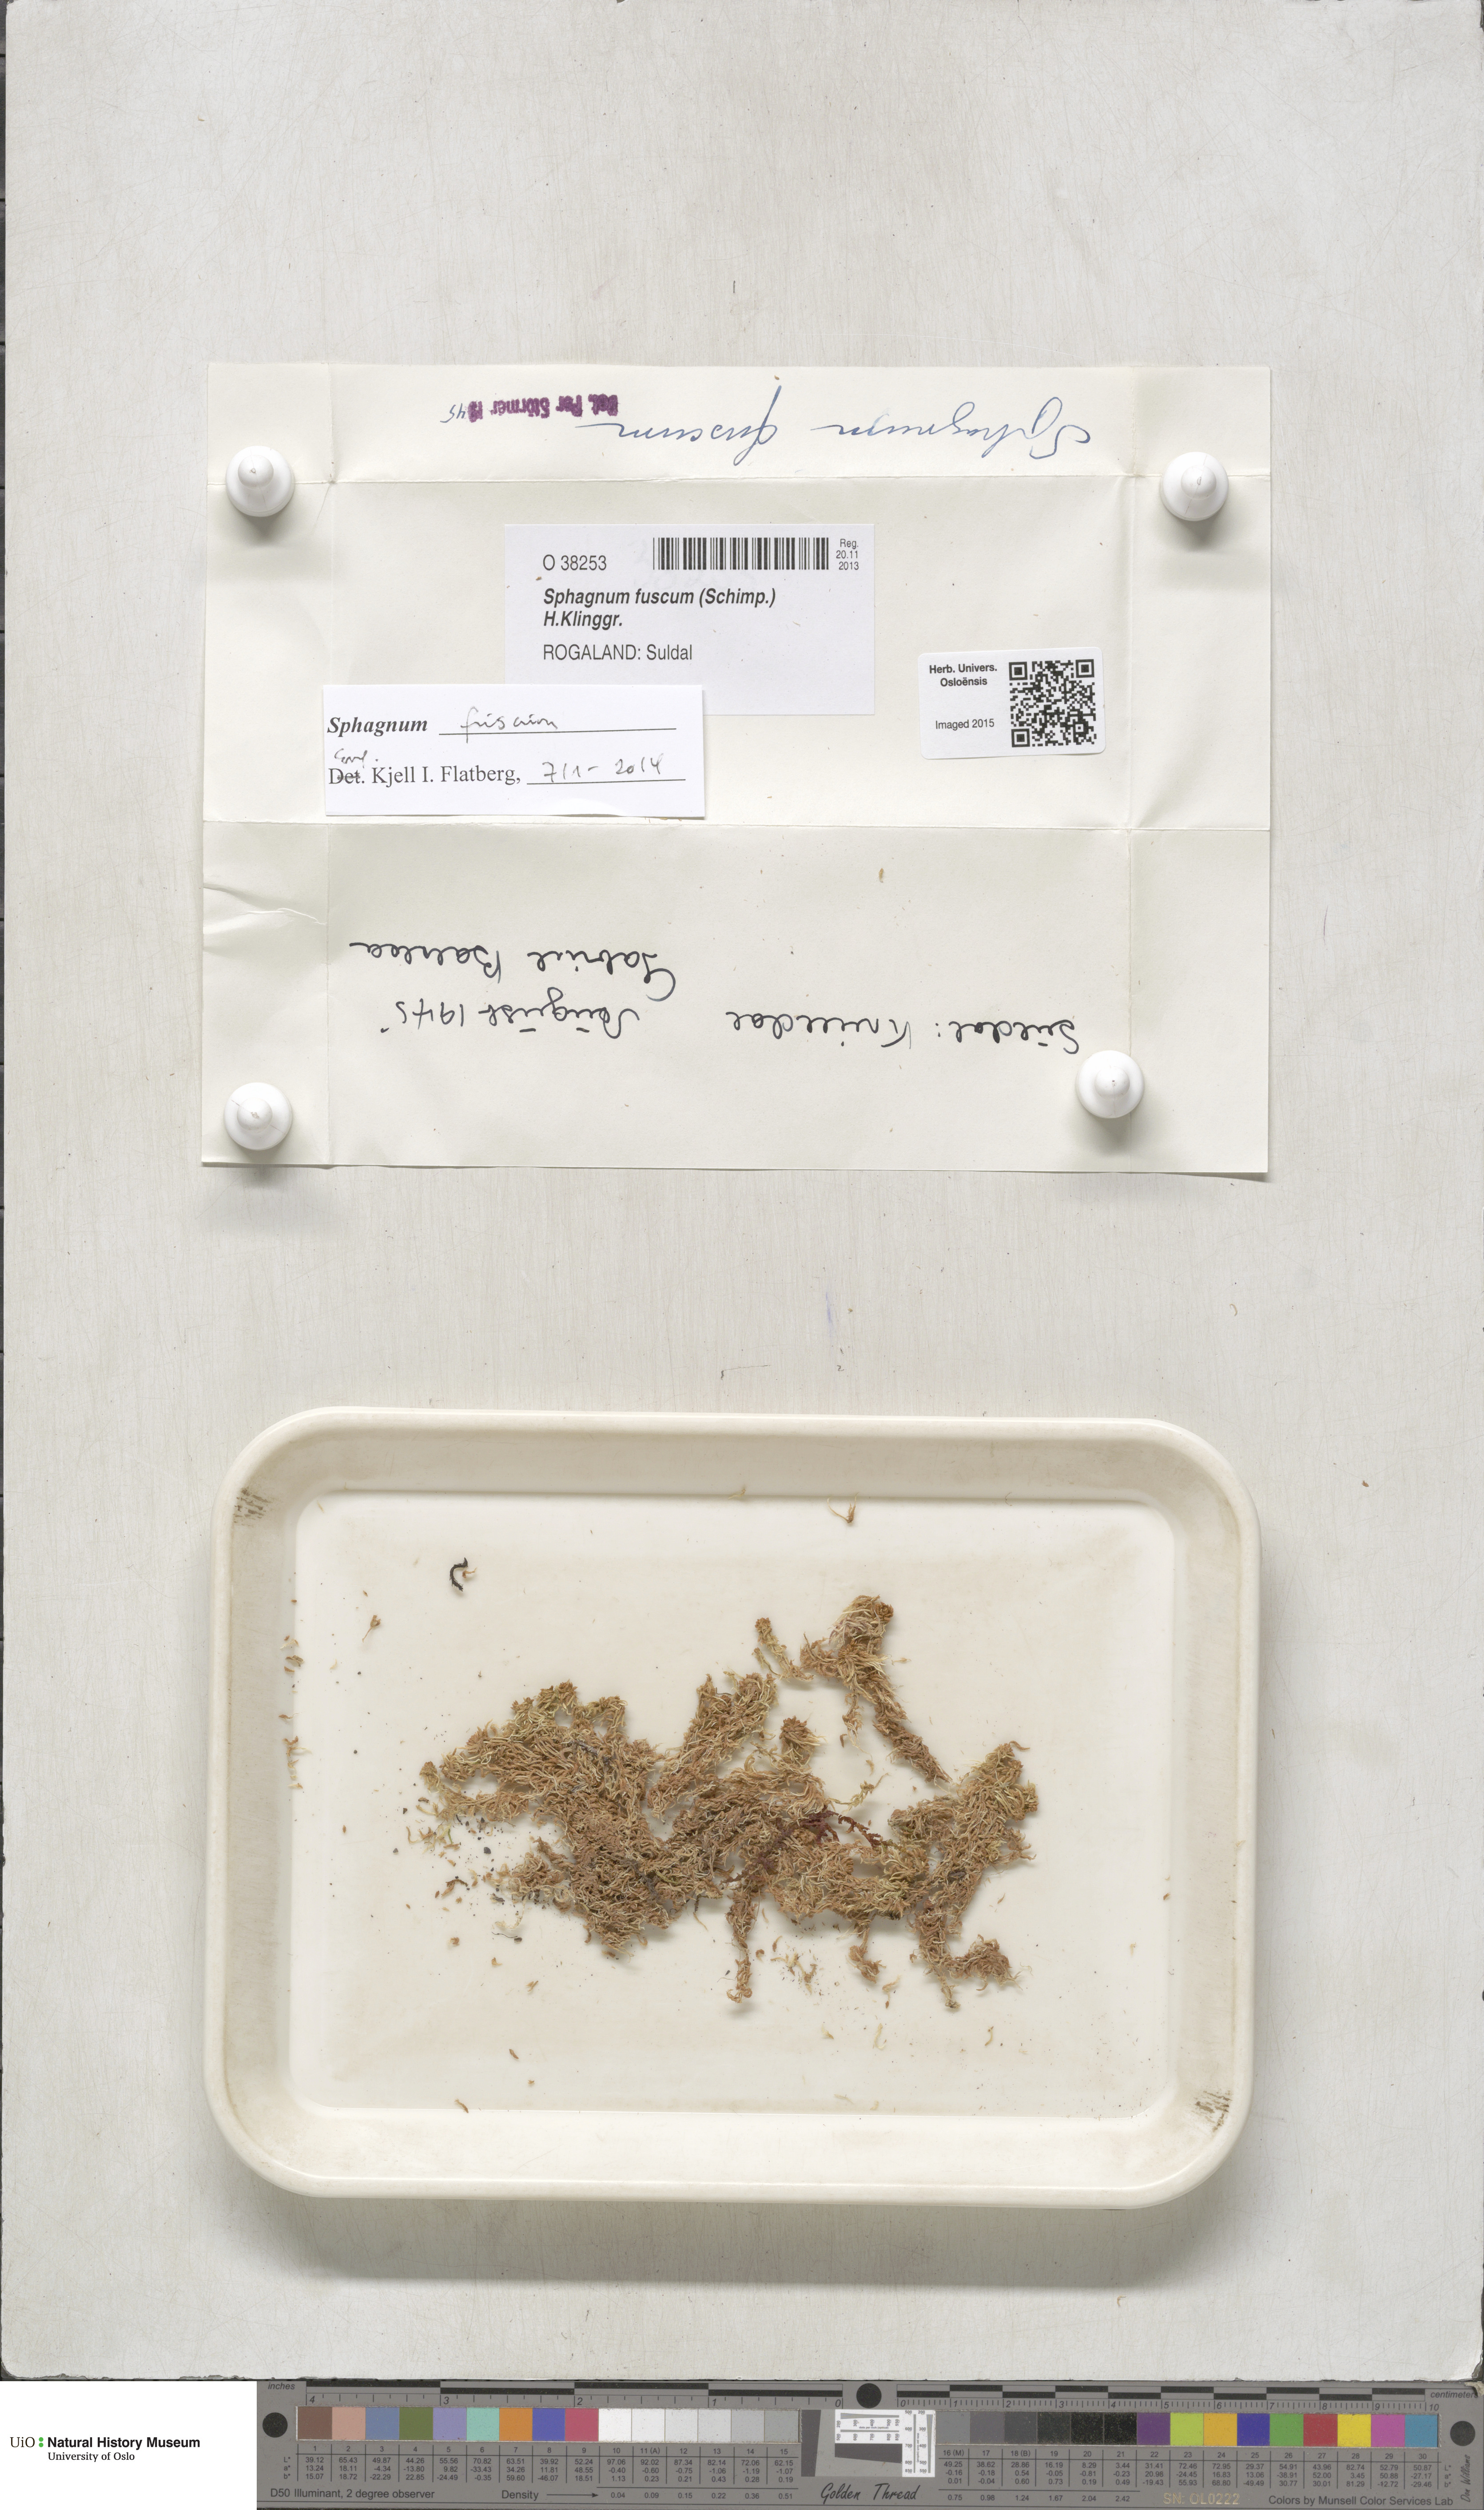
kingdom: Plantae
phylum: Bryophyta
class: Sphagnopsida
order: Sphagnales
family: Sphagnaceae
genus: Sphagnum
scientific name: Sphagnum fuscum
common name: Brown peat moss
